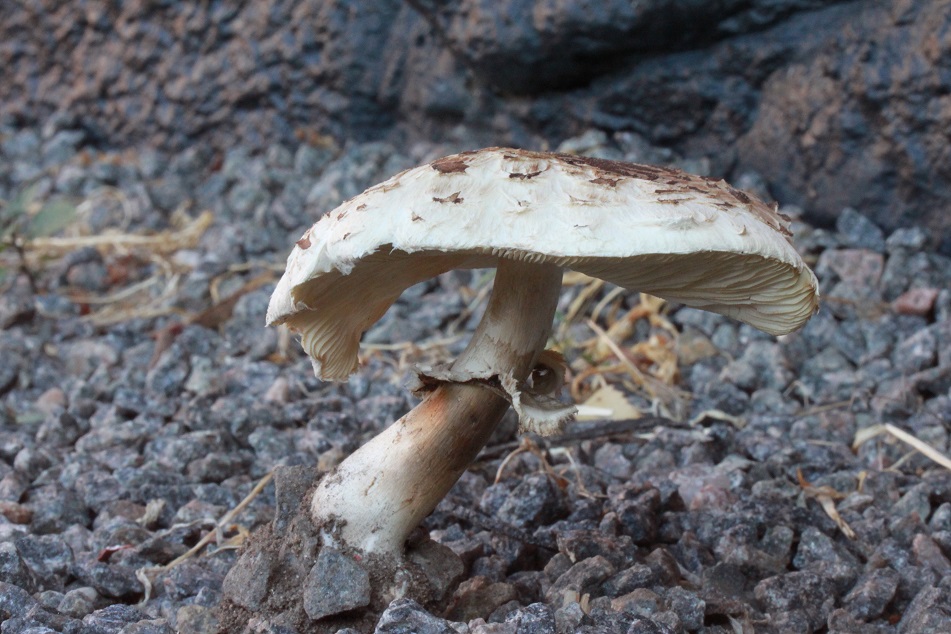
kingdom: Fungi
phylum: Basidiomycota
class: Agaricomycetes
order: Agaricales
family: Agaricaceae
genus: Chlorophyllum
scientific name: Chlorophyllum brunneum
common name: giftig rabarberhat
